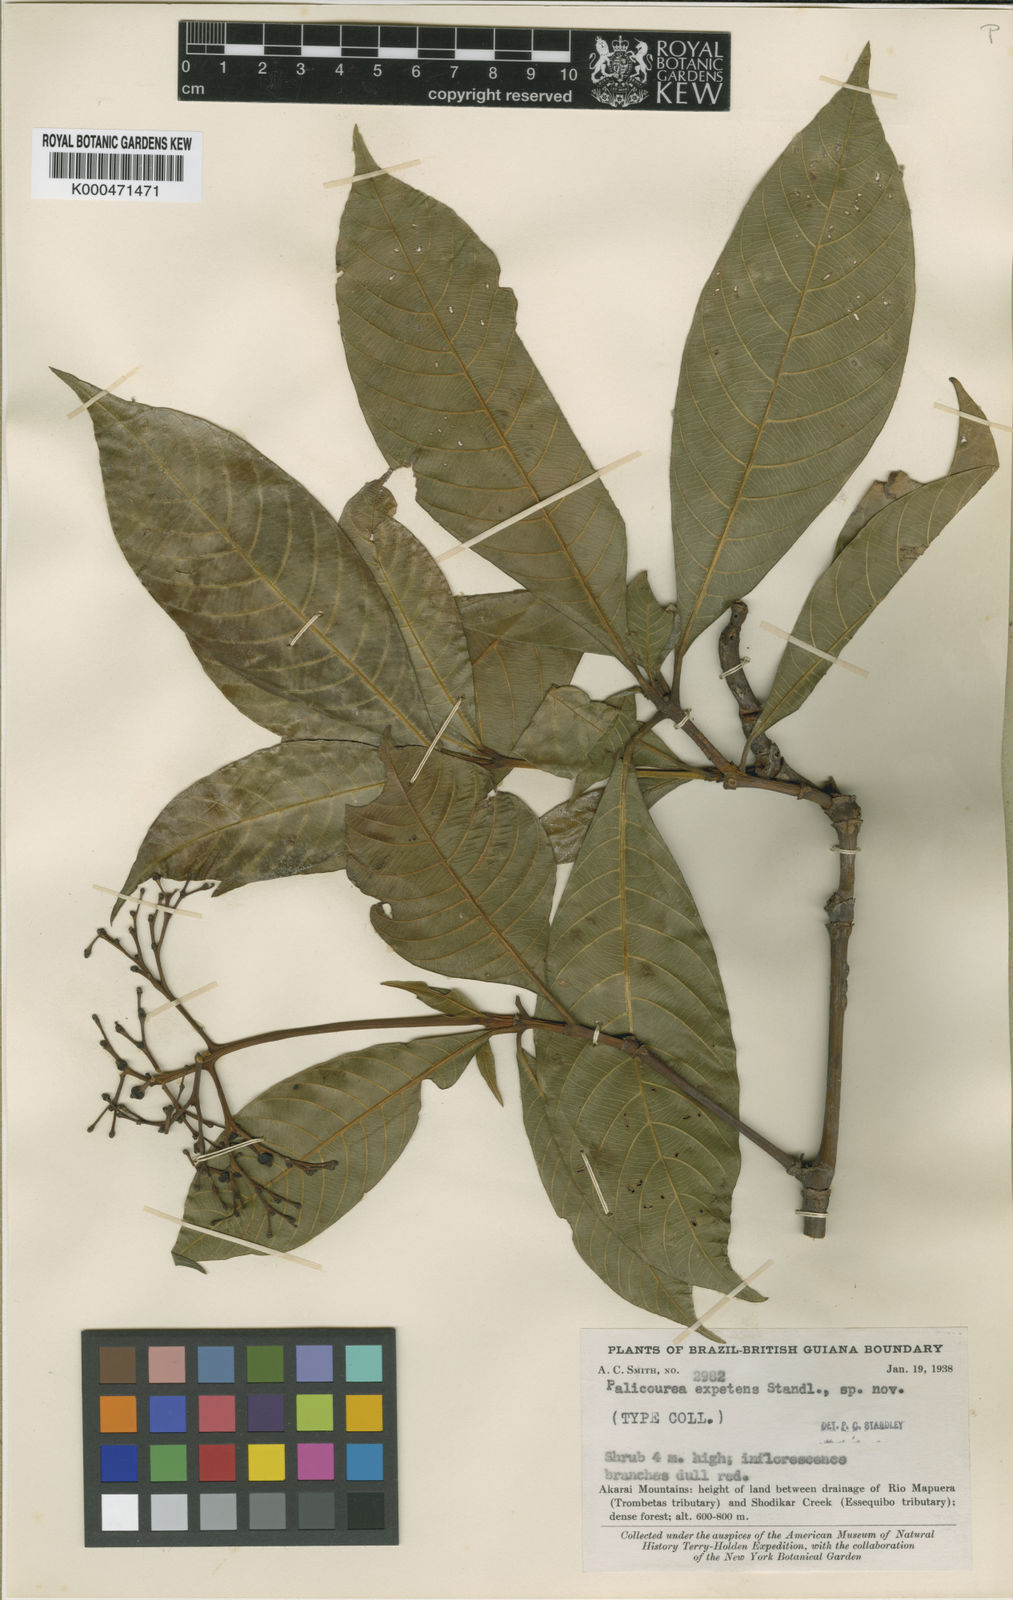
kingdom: Plantae
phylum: Tracheophyta
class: Magnoliopsida
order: Gentianales
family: Rubiaceae
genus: Palicourea
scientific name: Palicourea
